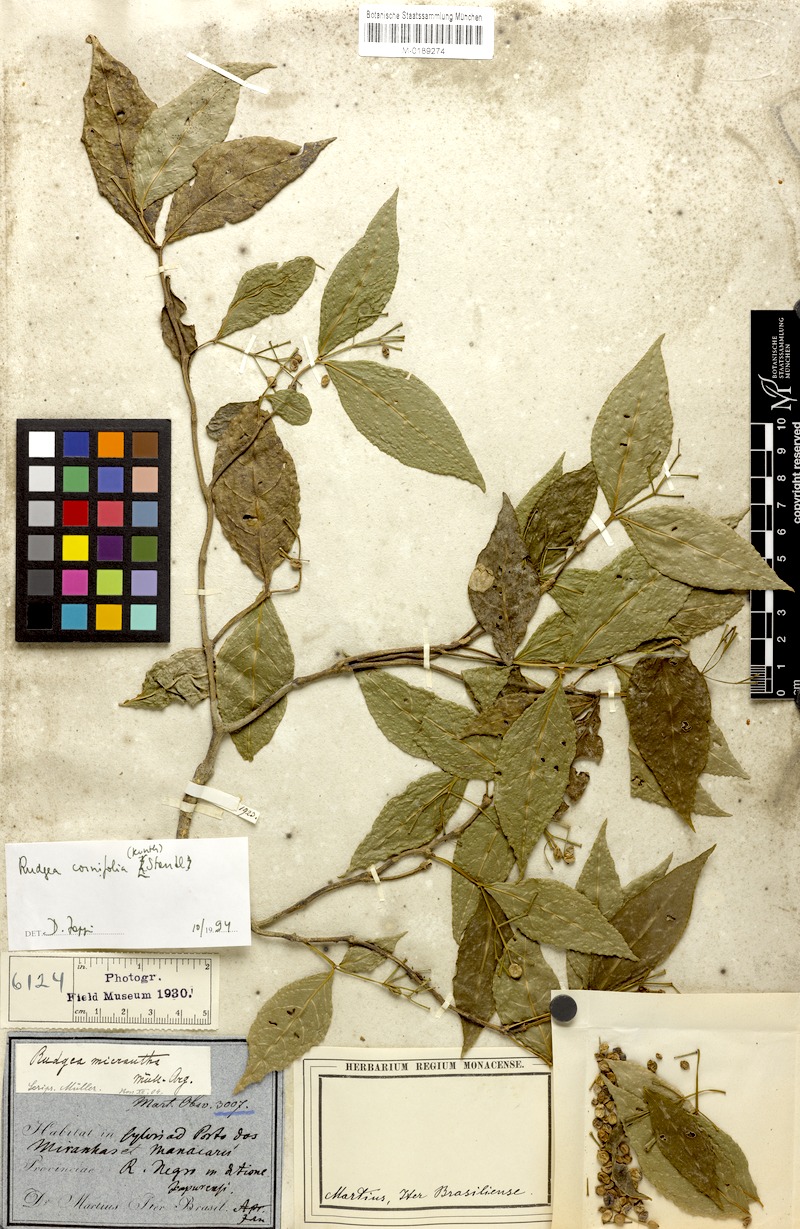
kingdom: Plantae
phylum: Tracheophyta
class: Magnoliopsida
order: Gentianales
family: Rubiaceae
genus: Rudgea
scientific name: Rudgea cornifolia
